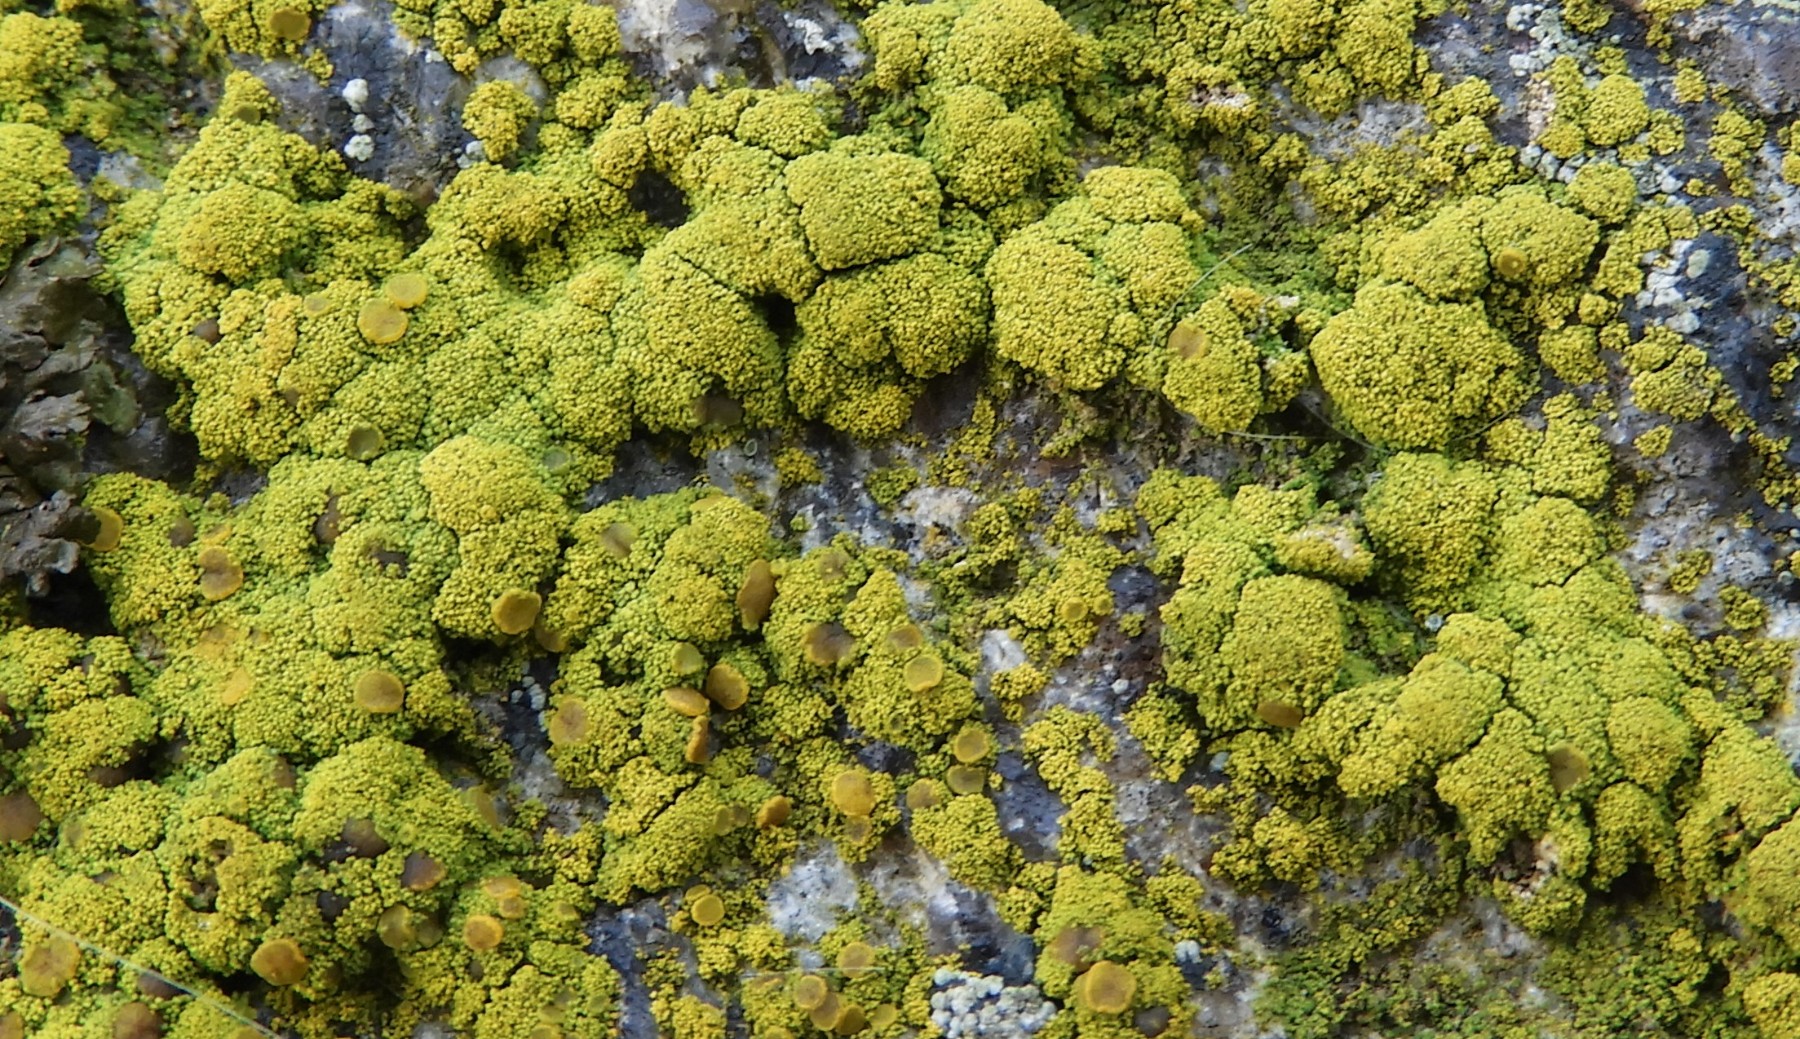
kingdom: Fungi
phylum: Ascomycota
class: Candelariomycetes
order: Candelariales
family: Candelariaceae
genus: Candelariella
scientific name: Candelariella vitellina
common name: almindelig æggeblommelav
